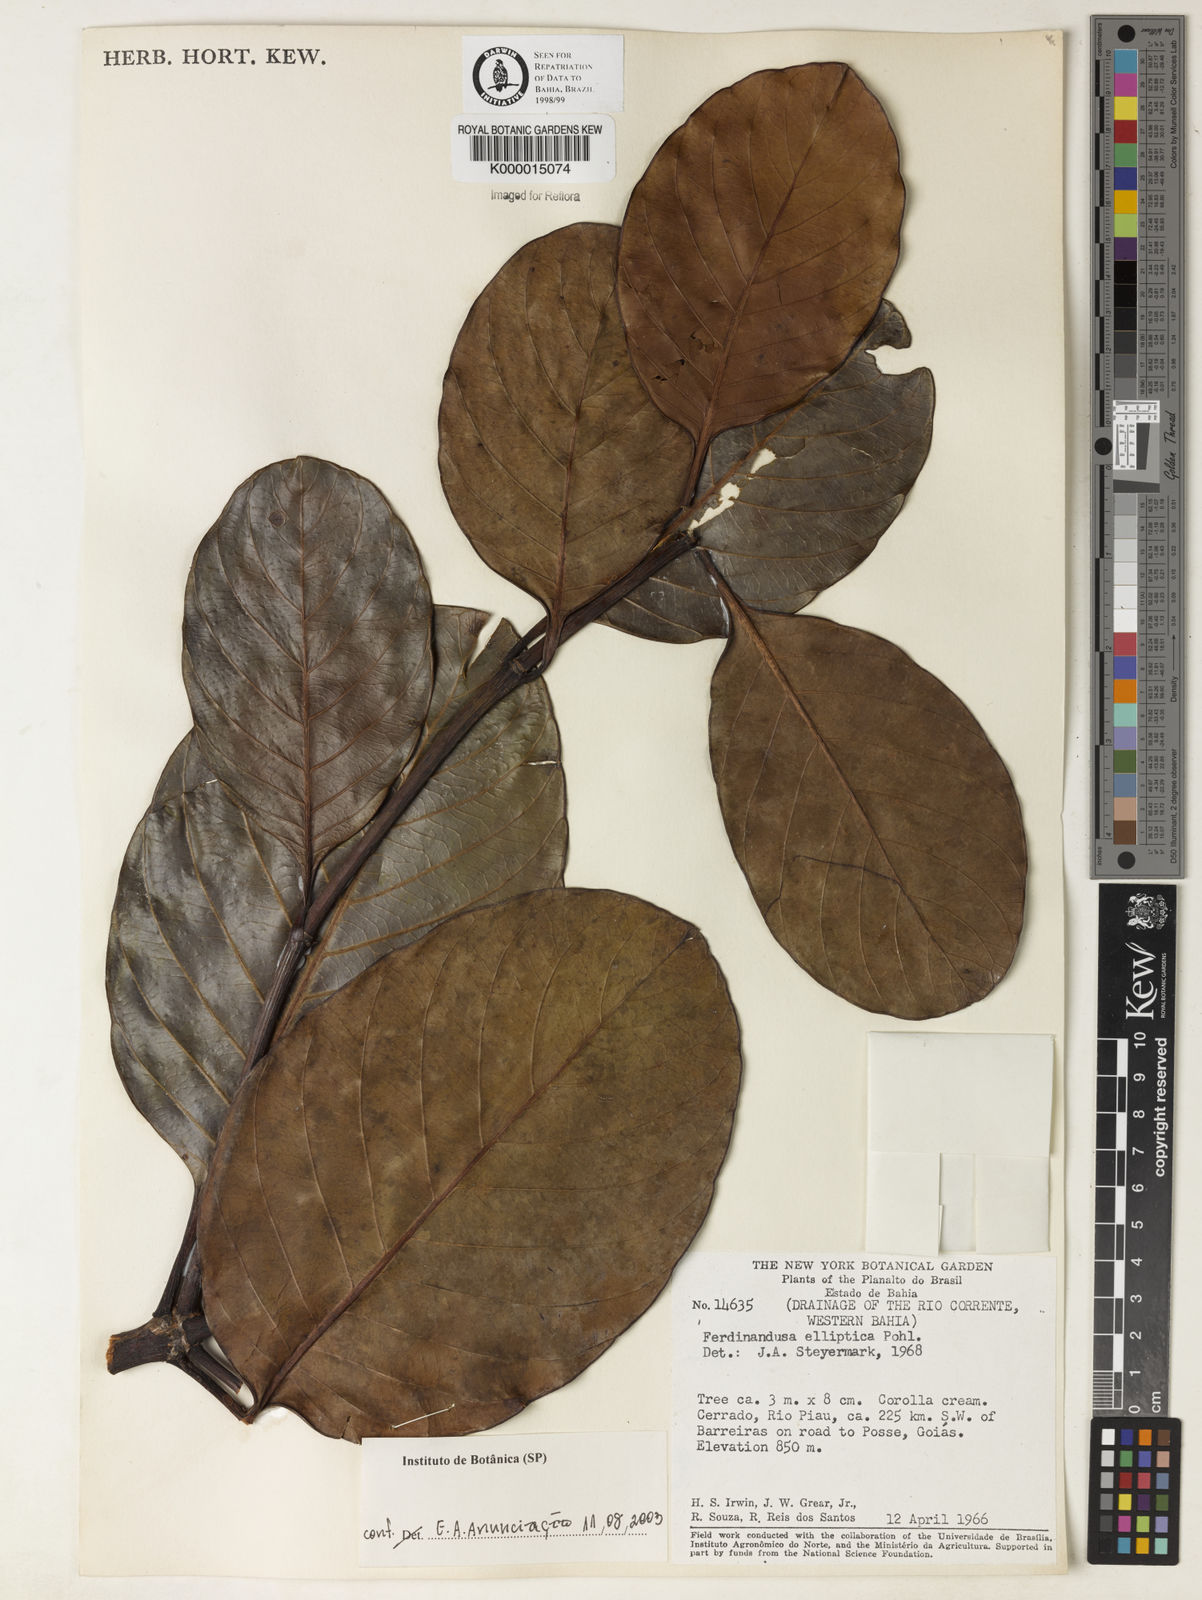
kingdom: Plantae
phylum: Tracheophyta
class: Magnoliopsida
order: Gentianales
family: Rubiaceae
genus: Ferdinandusa
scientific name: Ferdinandusa elliptica
